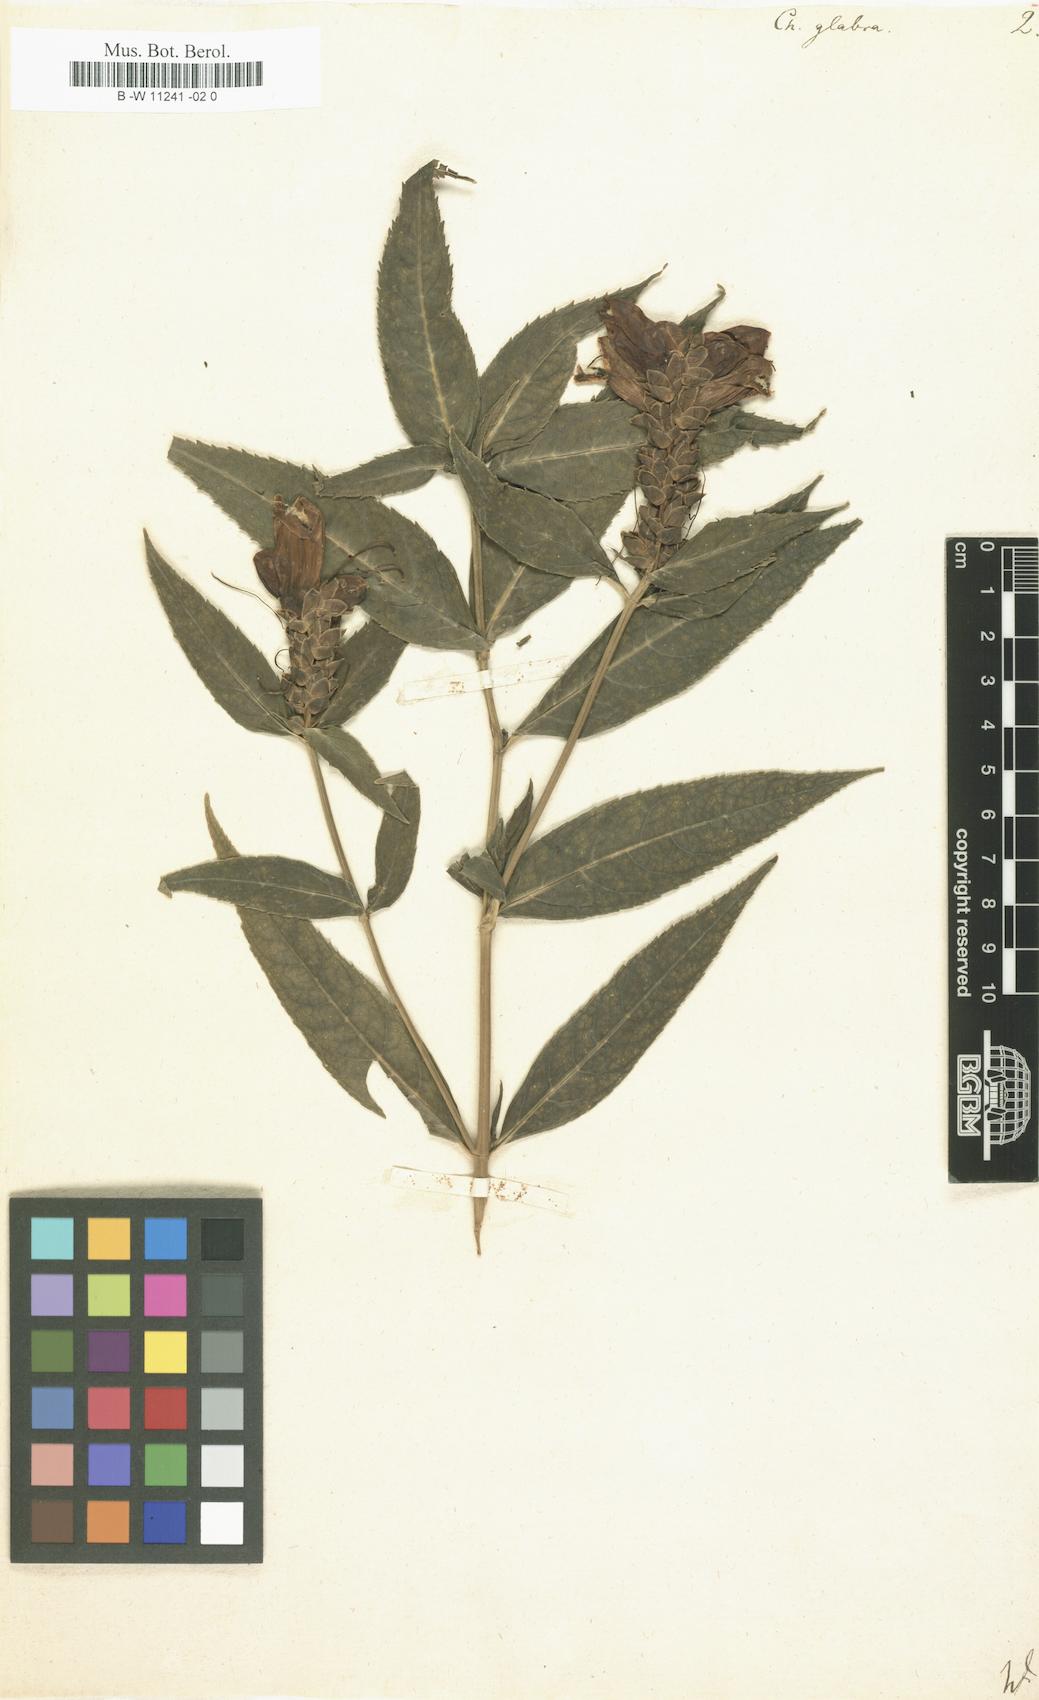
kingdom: Plantae
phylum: Tracheophyta
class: Magnoliopsida
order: Lamiales
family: Plantaginaceae
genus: Chelone
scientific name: Chelone glabra
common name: Snakehead
